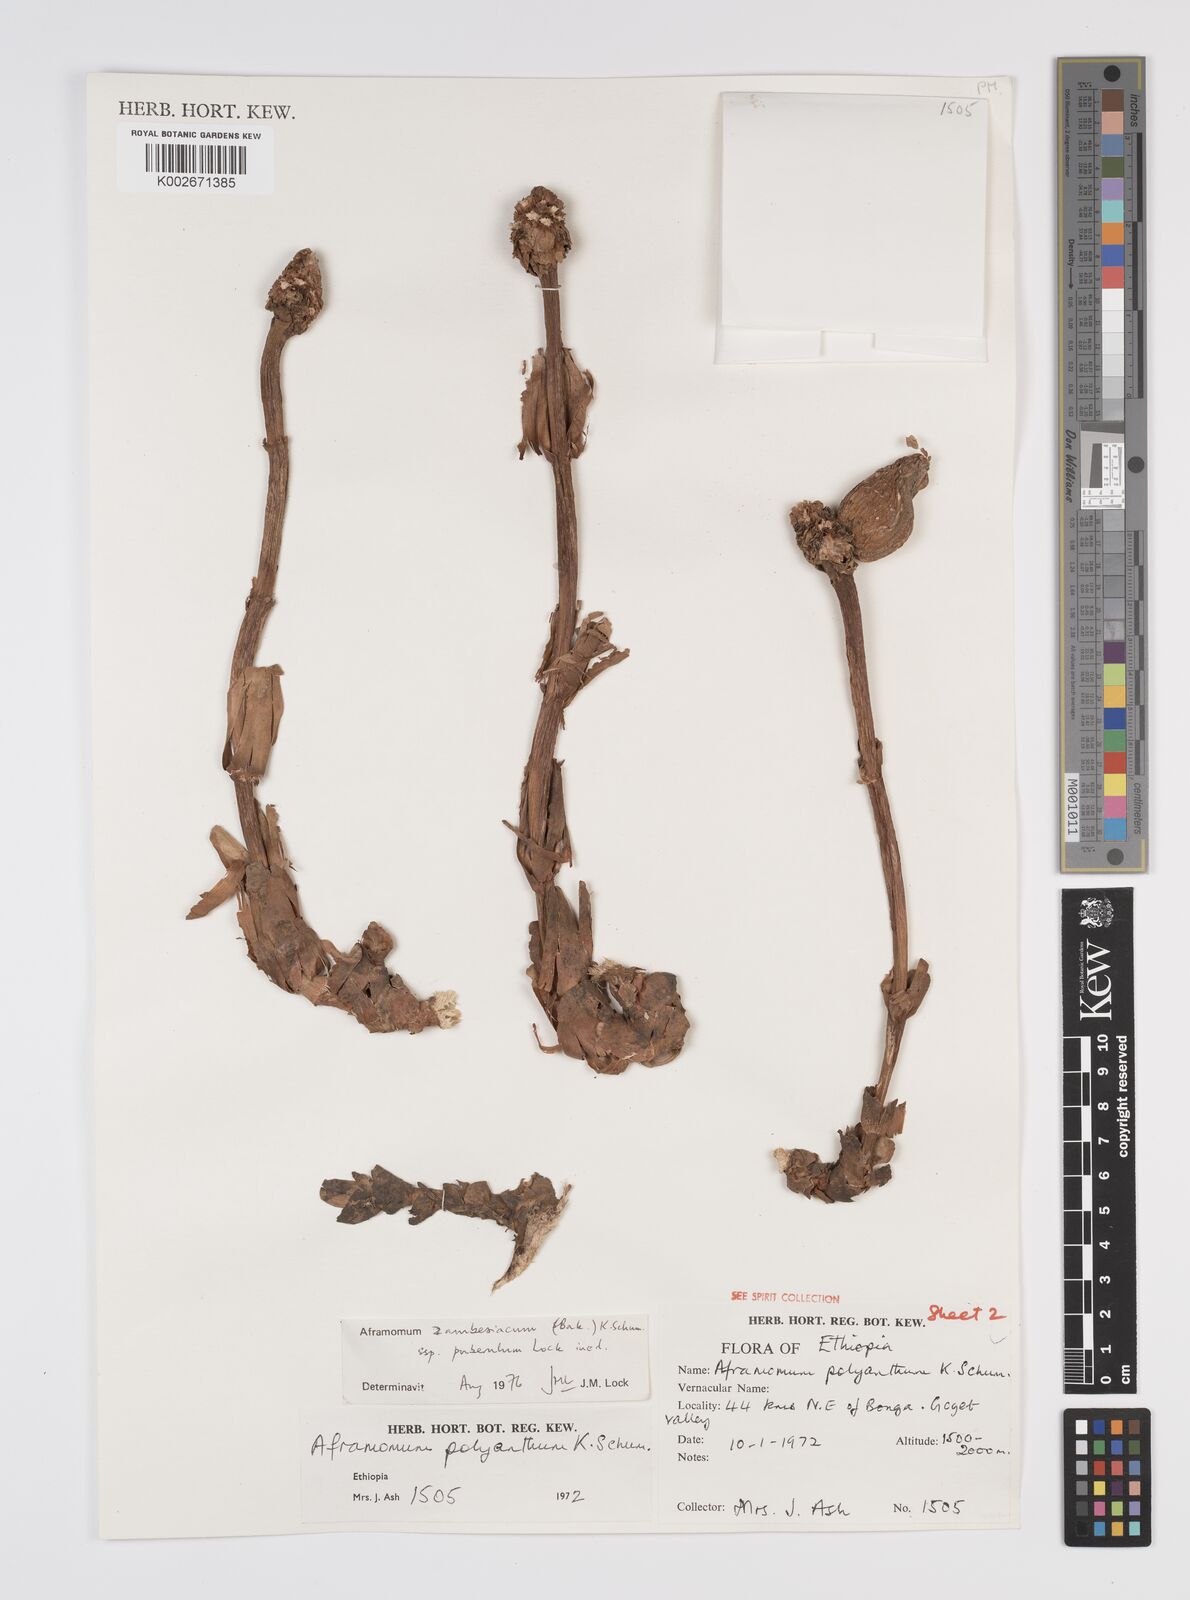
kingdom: Plantae
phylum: Tracheophyta
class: Liliopsida
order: Zingiberales
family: Zingiberaceae
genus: Aframomum
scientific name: Aframomum zambesiacum
